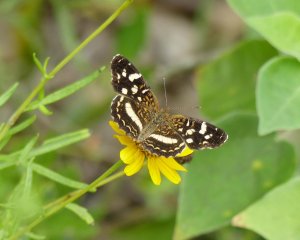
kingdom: Animalia
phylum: Arthropoda
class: Insecta
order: Lepidoptera
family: Nymphalidae
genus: Anthanassa
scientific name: Anthanassa tulcis
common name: Pale-banded Crescent
